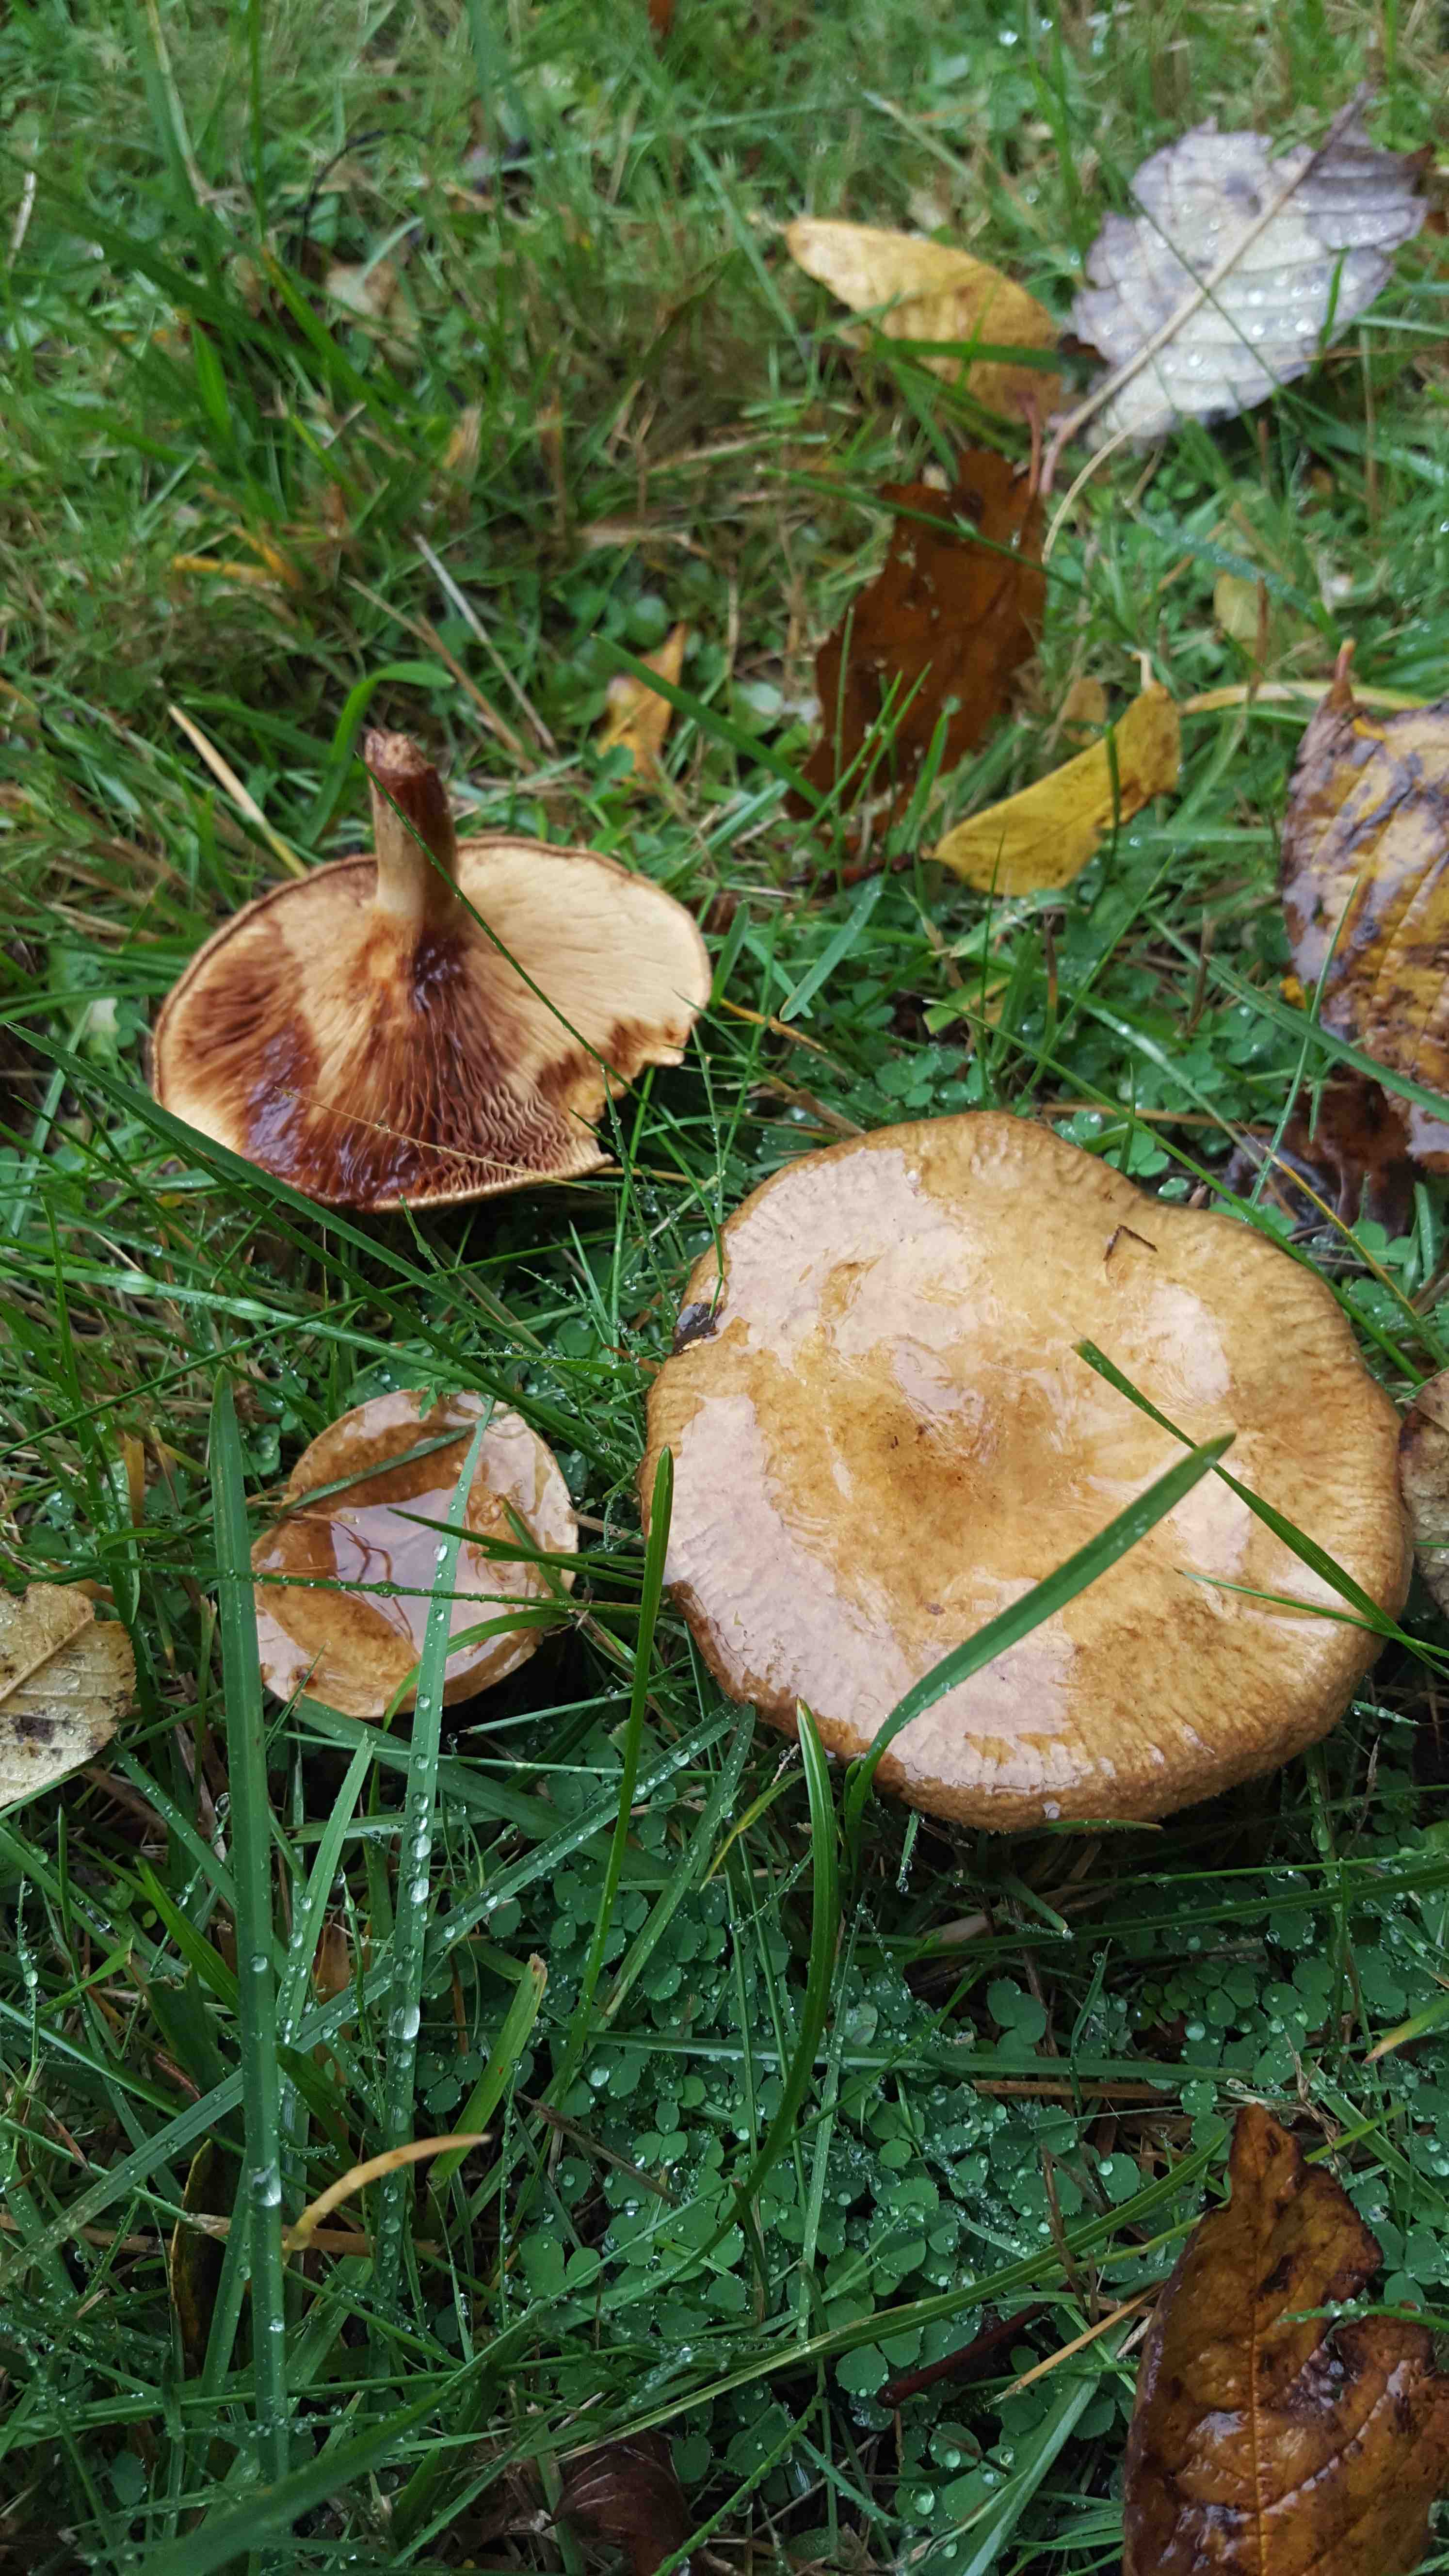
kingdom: Fungi
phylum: Basidiomycota
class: Agaricomycetes
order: Boletales
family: Paxillaceae
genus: Paxillus
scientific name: Paxillus
